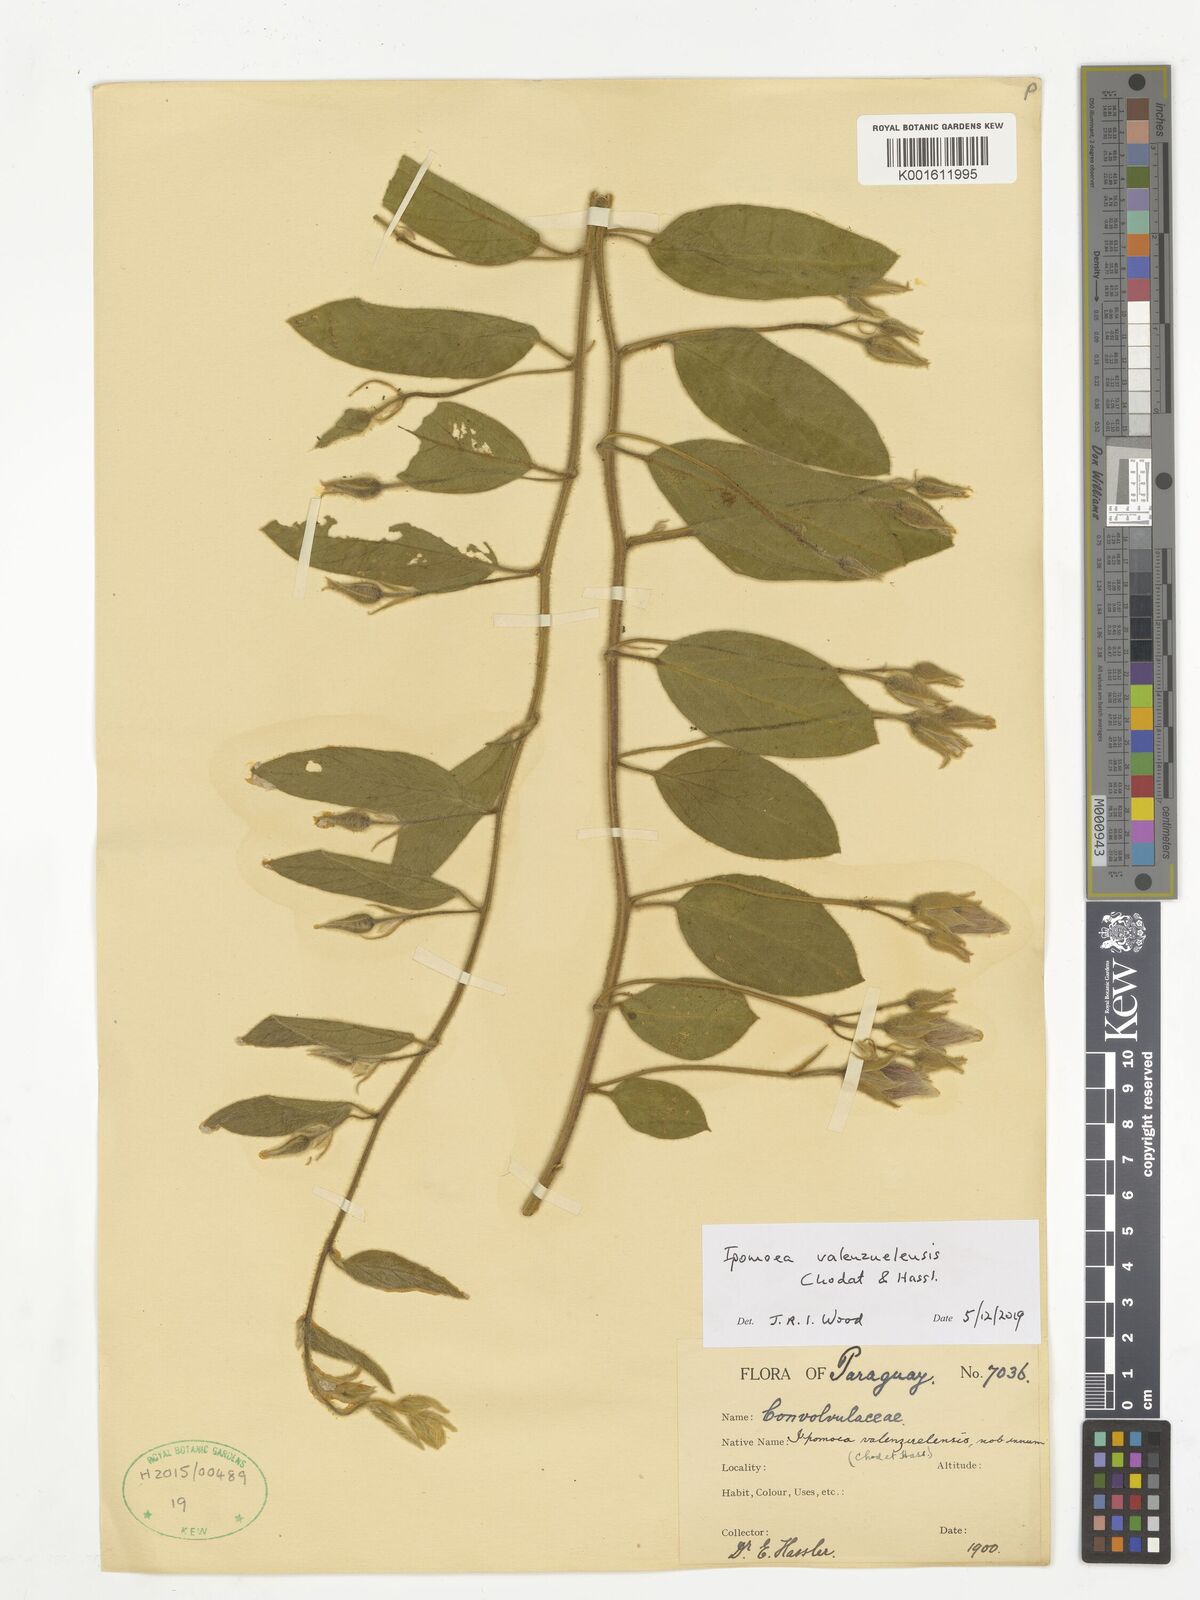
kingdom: Plantae
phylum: Tracheophyta
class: Magnoliopsida
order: Solanales
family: Convolvulaceae
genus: Ipomoea
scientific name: Ipomoea valenzuelensis
